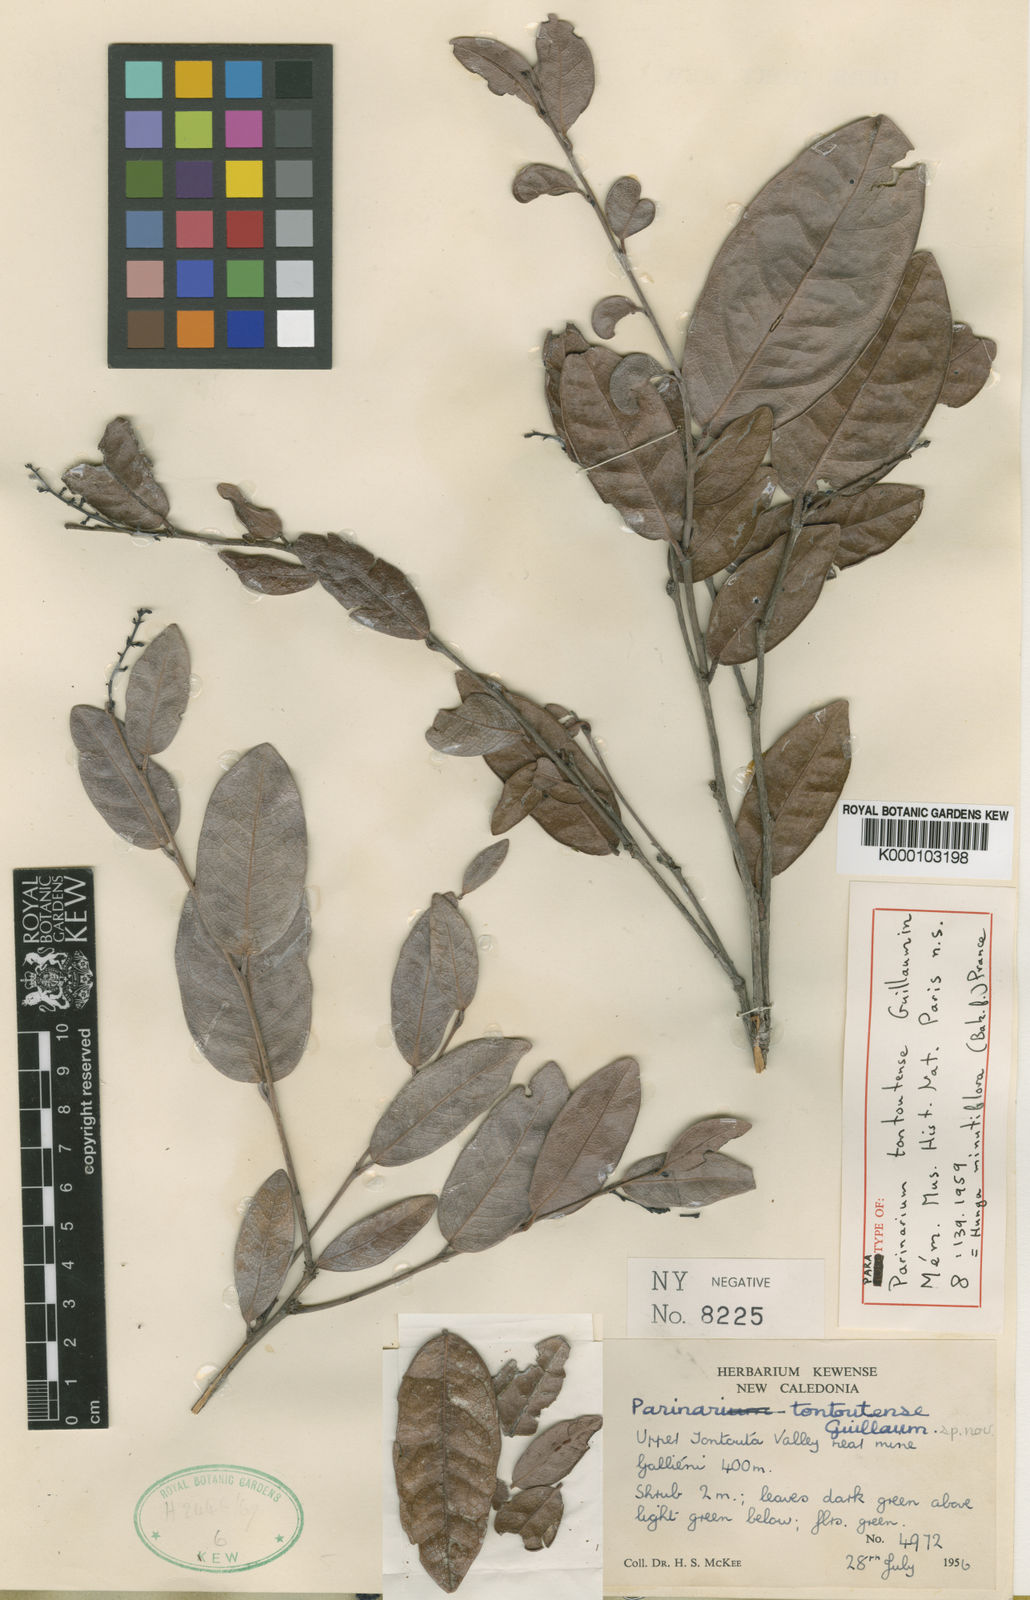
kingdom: Plantae
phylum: Tracheophyta
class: Magnoliopsida
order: Malpighiales
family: Chrysobalanaceae
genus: Hunga
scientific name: Hunga minutiflora
